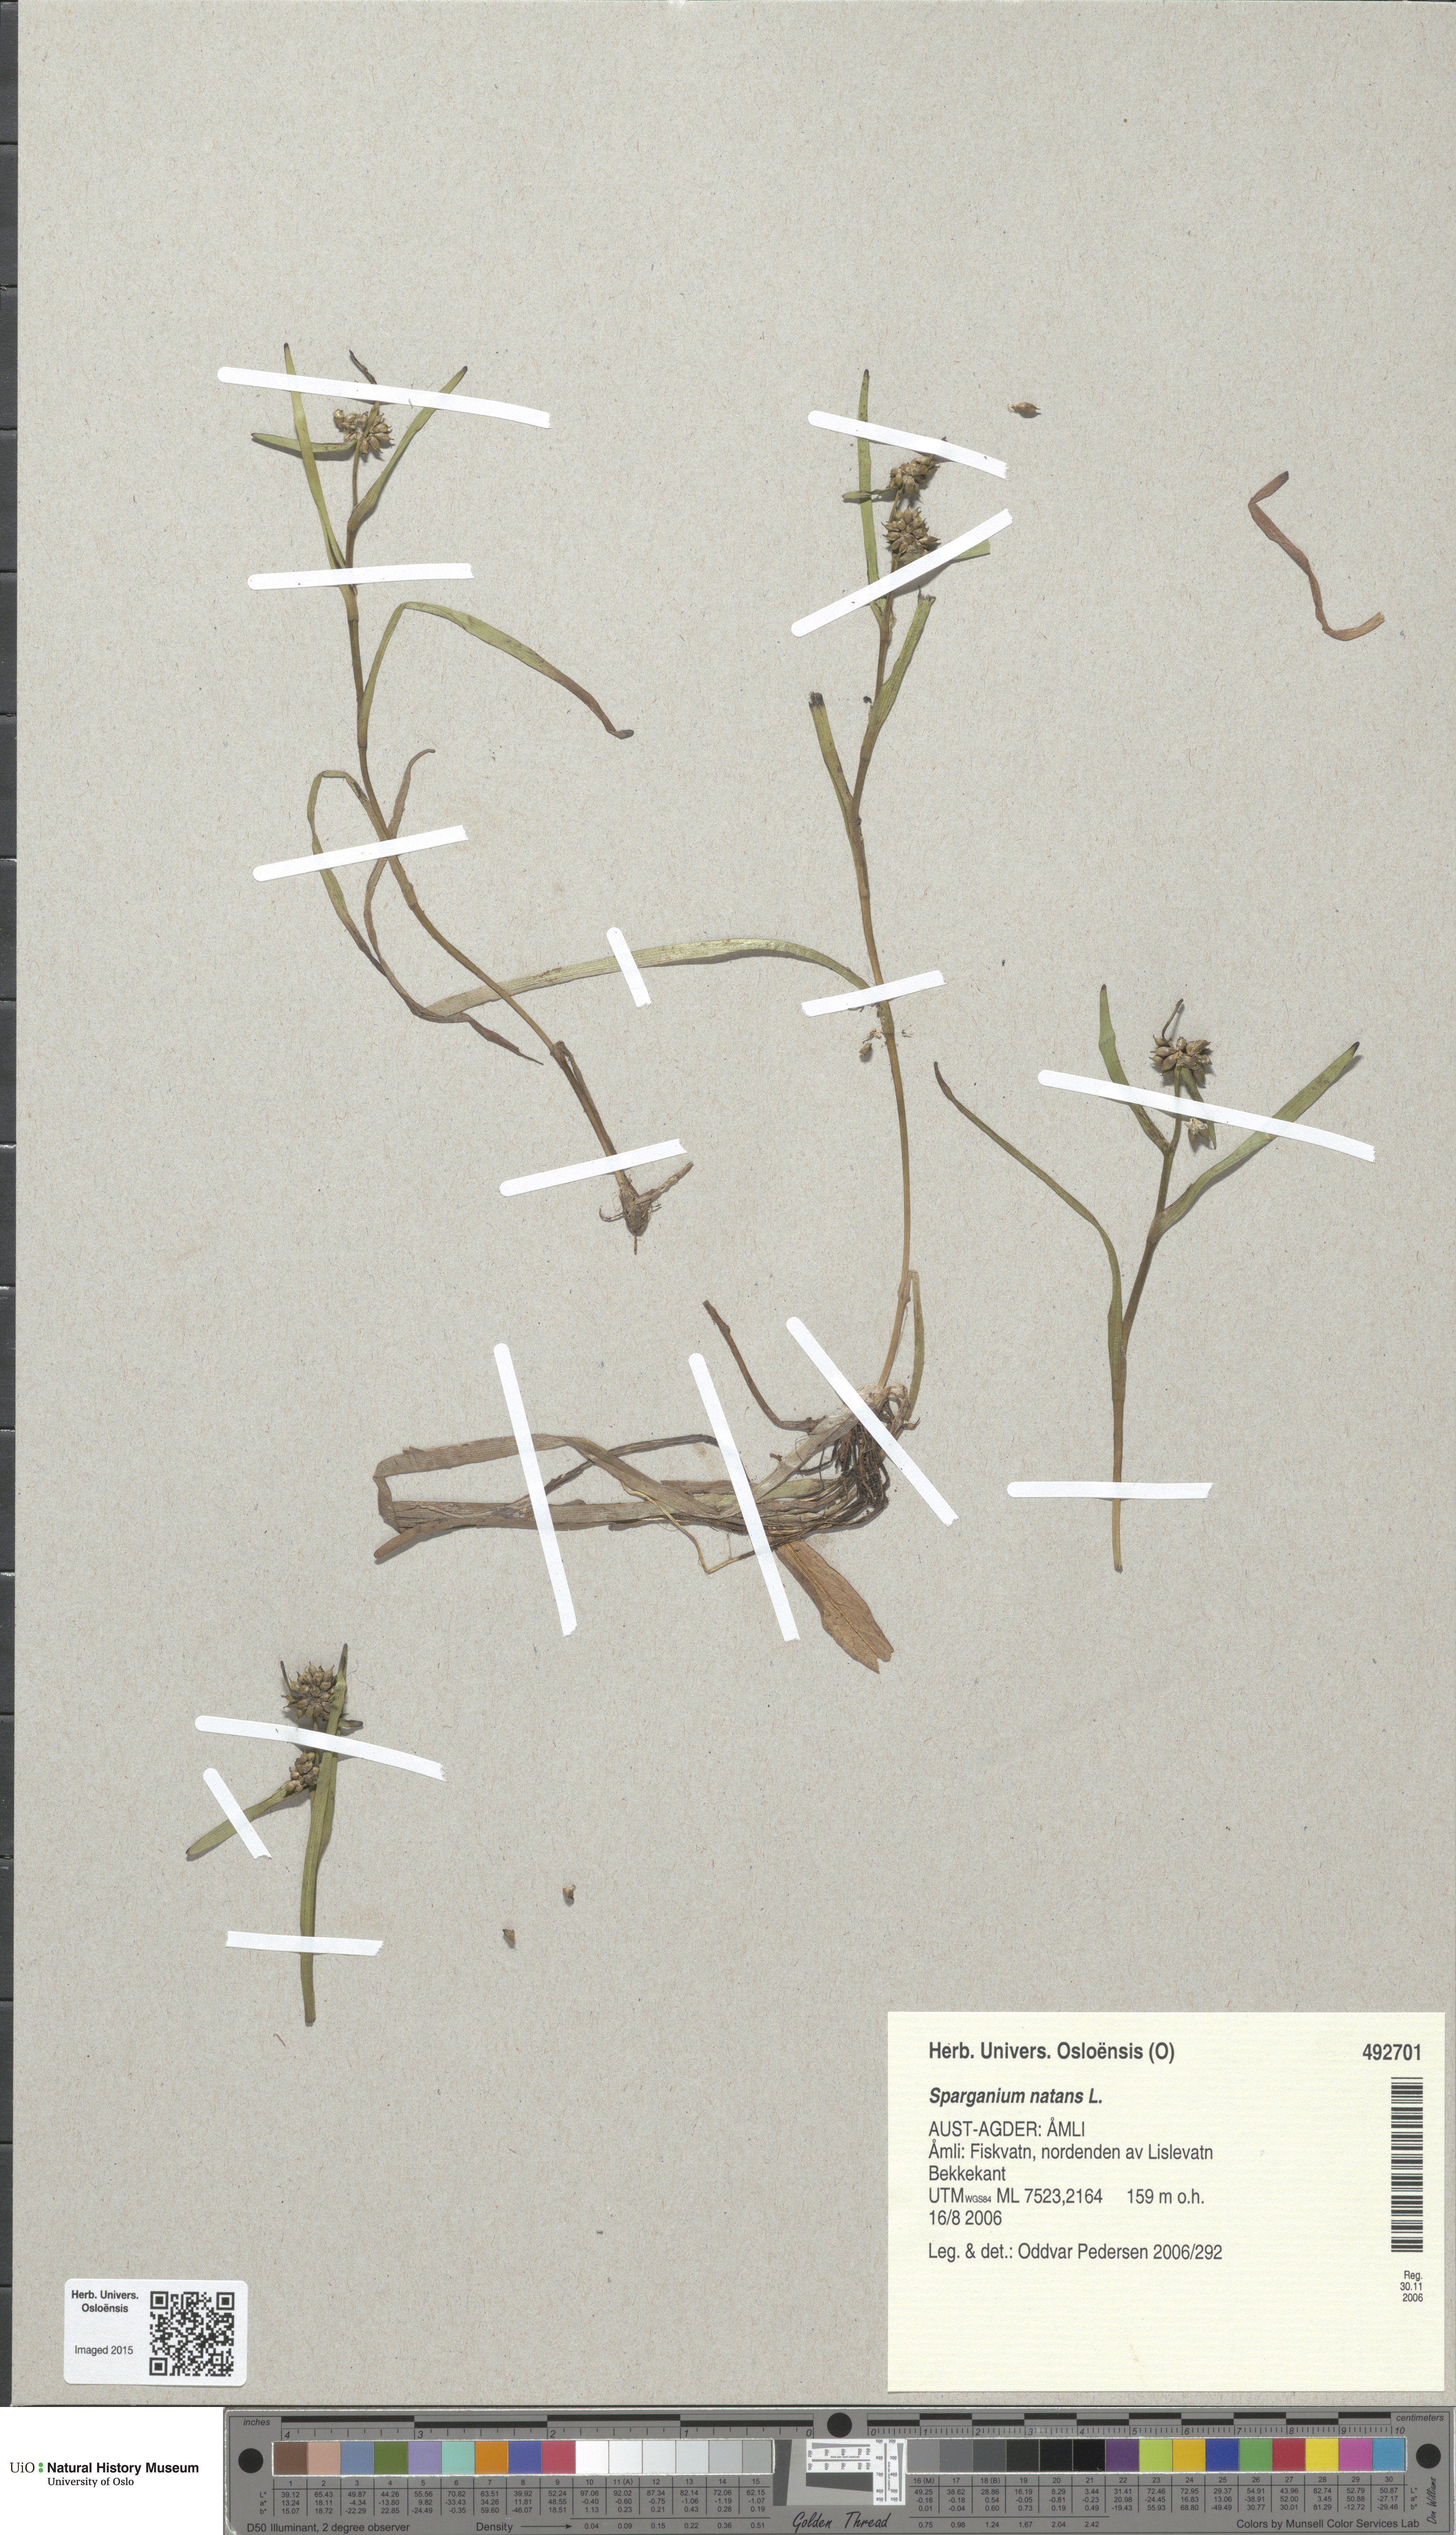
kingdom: Plantae
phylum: Tracheophyta
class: Liliopsida
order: Poales
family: Typhaceae
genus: Sparganium
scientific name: Sparganium natans
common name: Least bur-reed
